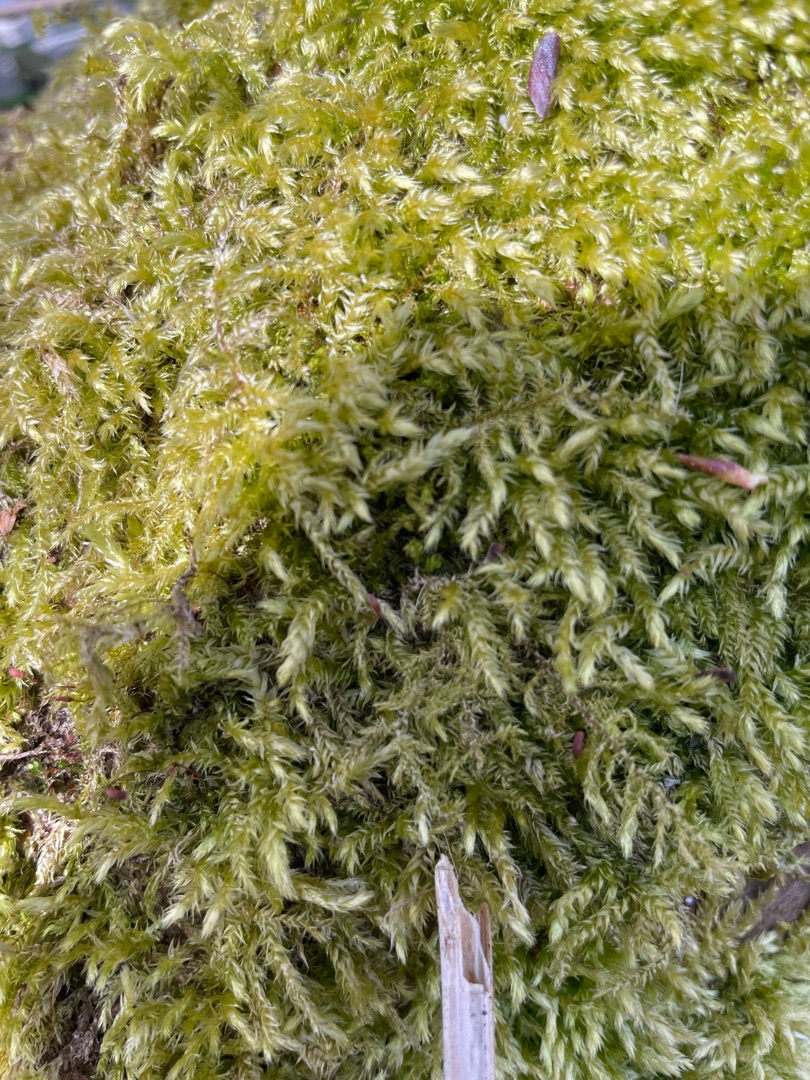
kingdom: Plantae
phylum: Bryophyta
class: Bryopsida
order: Hypnales
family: Brachytheciaceae
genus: Brachythecium
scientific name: Brachythecium rutabulum
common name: Almindelig kortkapsel
